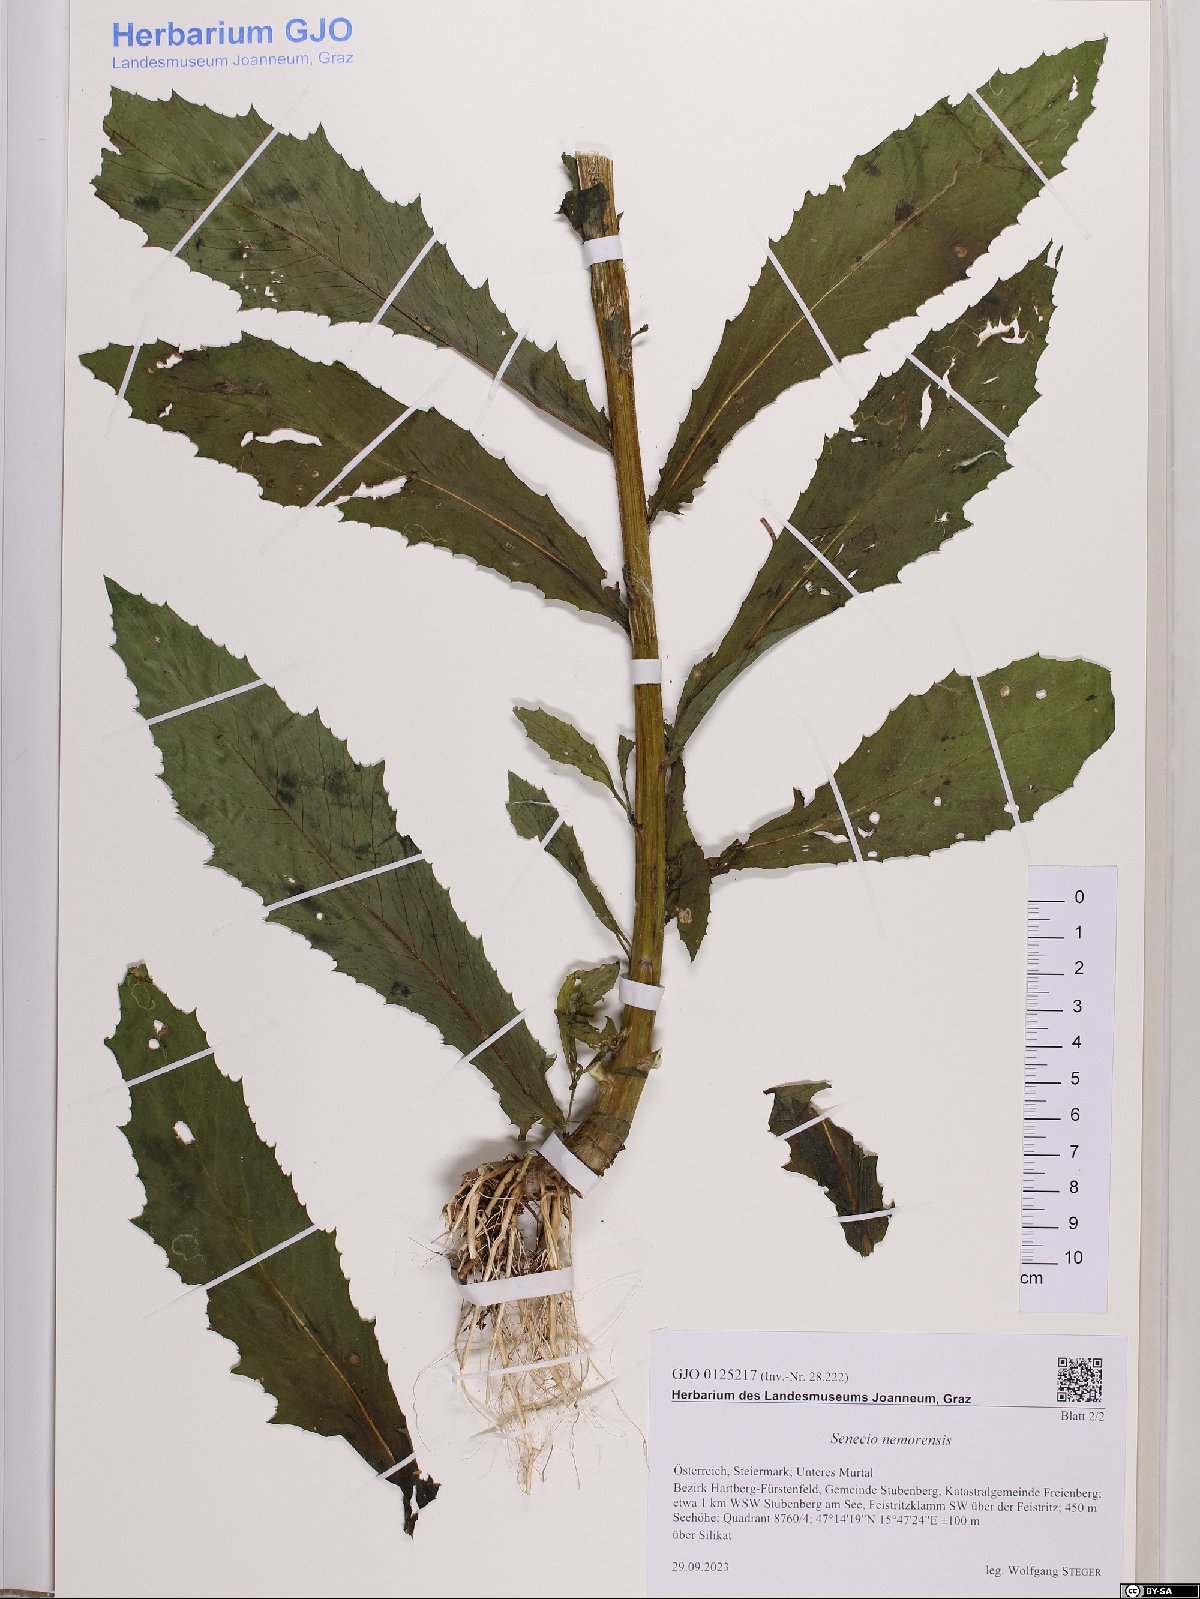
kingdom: Plantae
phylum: Tracheophyta
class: Magnoliopsida
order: Asterales
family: Asteraceae
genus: Senecio
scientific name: Senecio nemorensis
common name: Alpine ragwort
